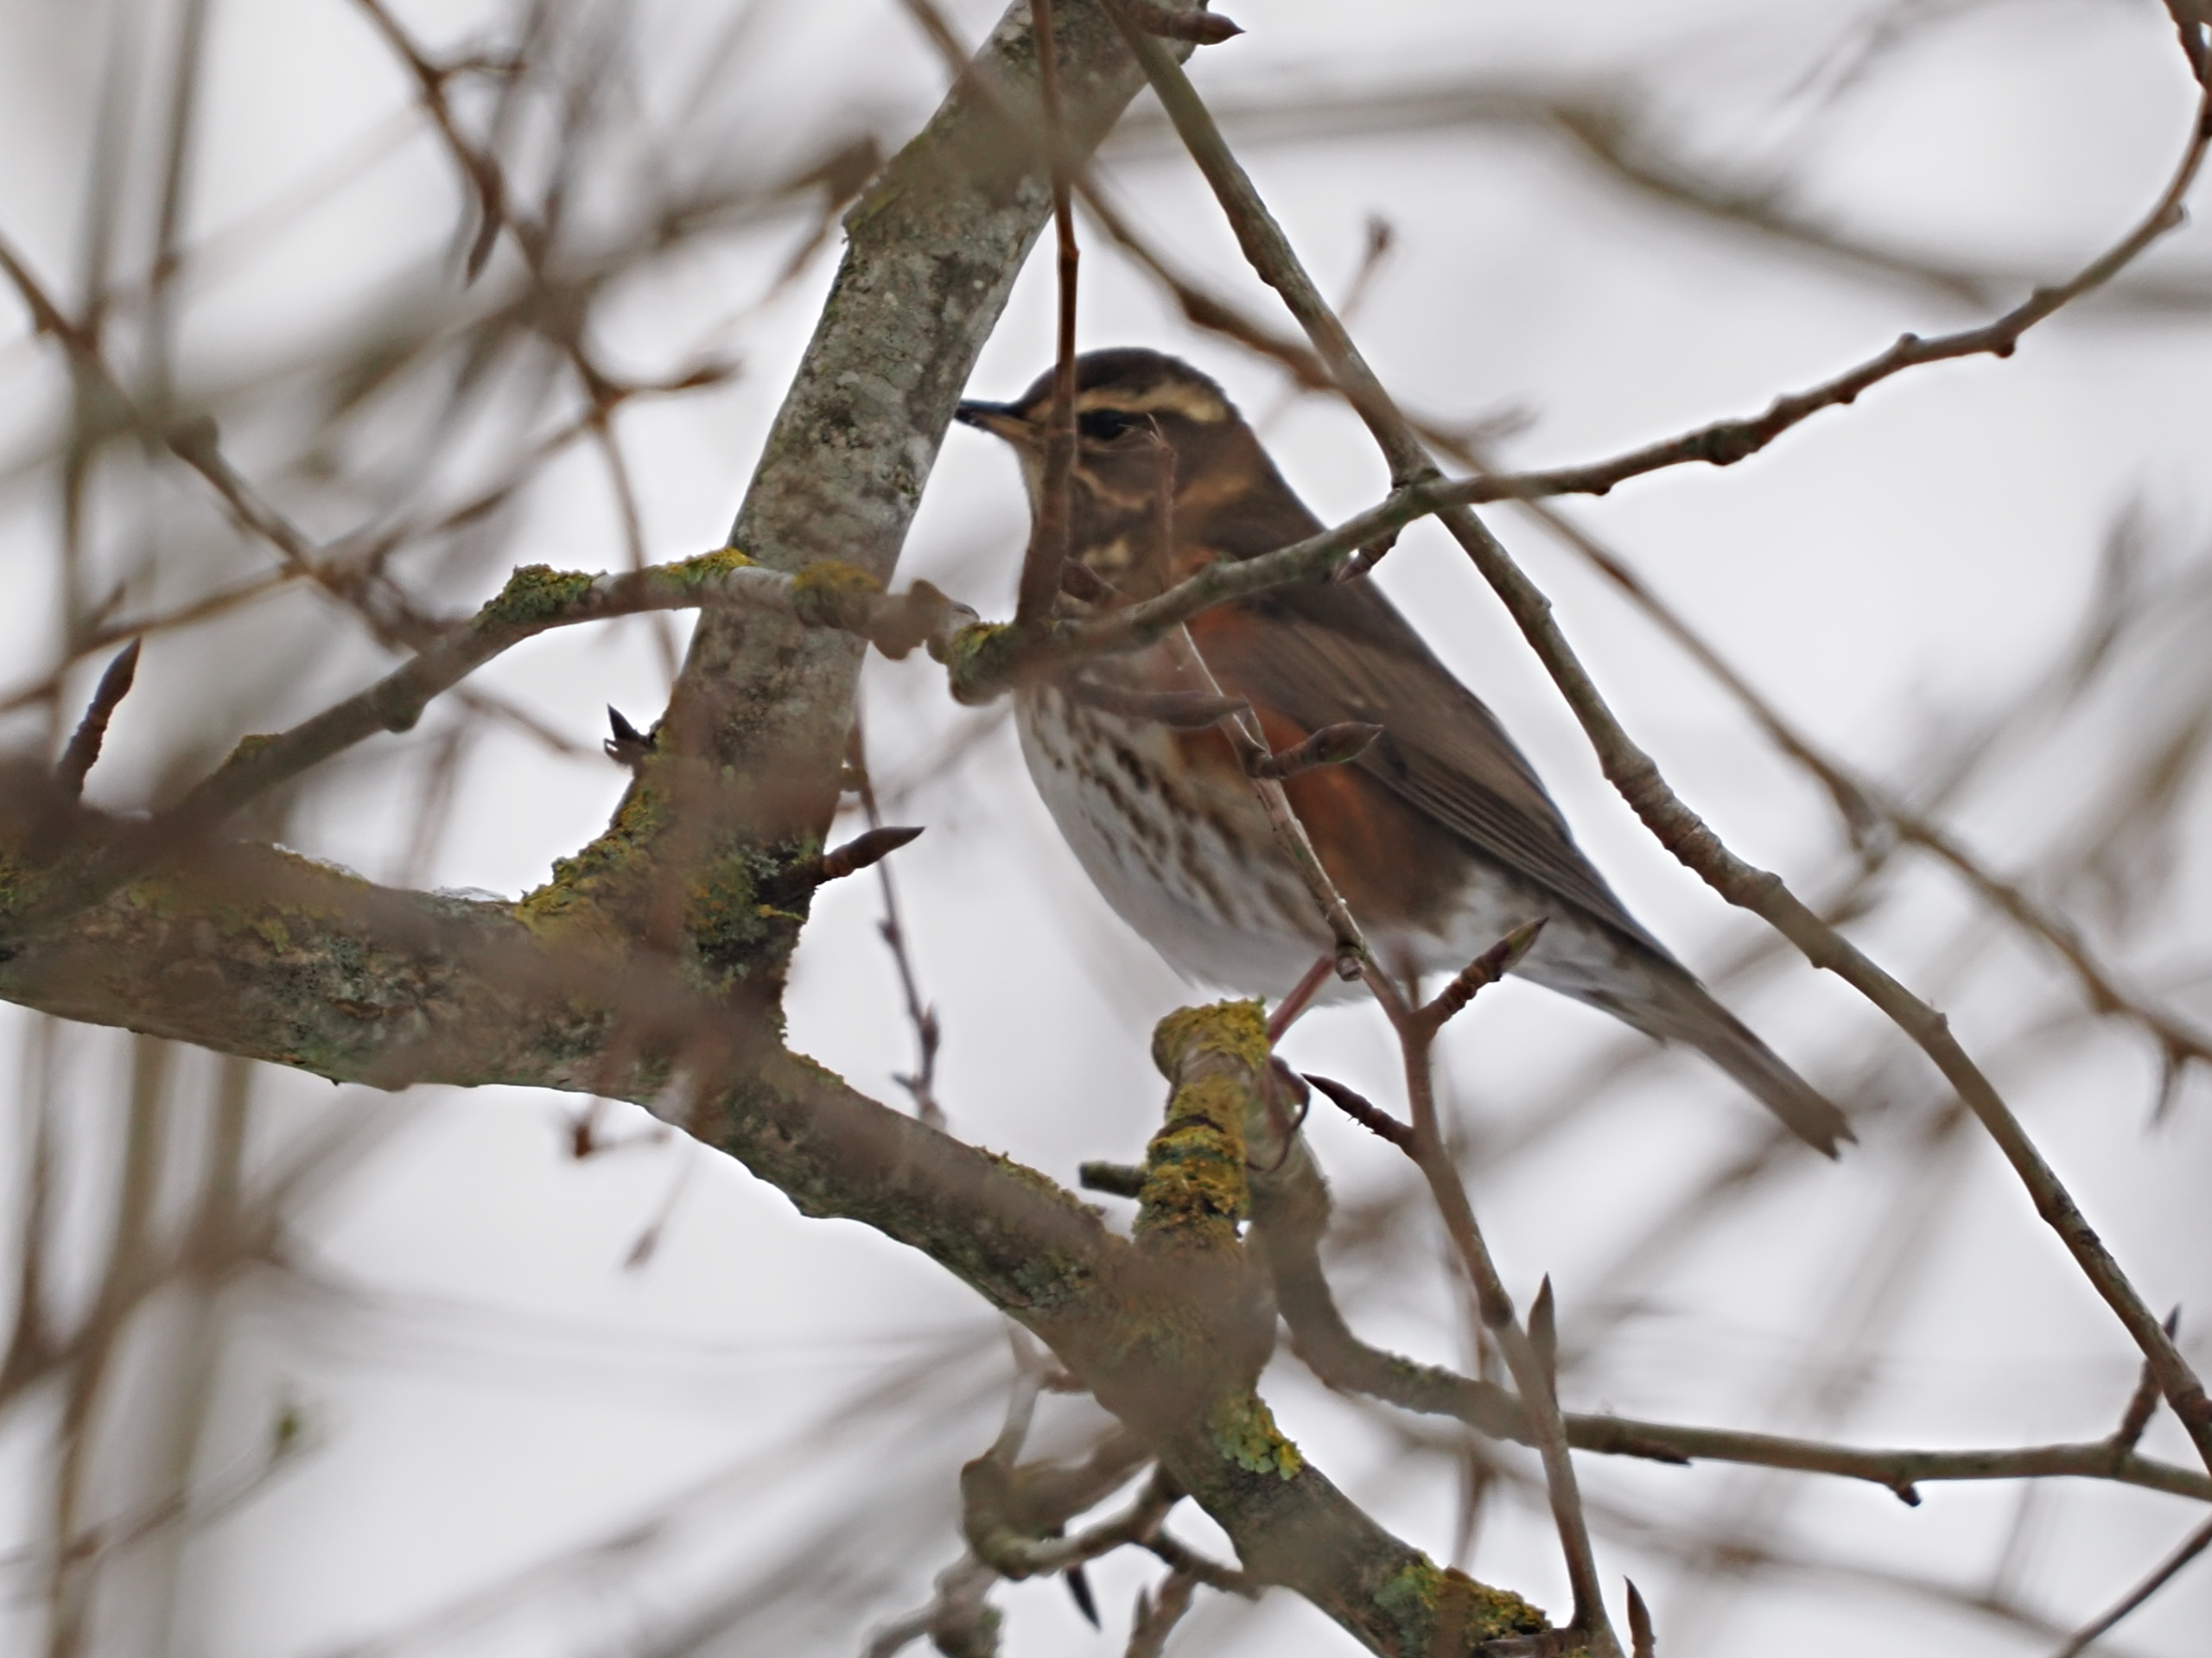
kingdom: Animalia
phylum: Chordata
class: Aves
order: Passeriformes
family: Turdidae
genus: Turdus
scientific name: Turdus iliacus
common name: Vindrossel
